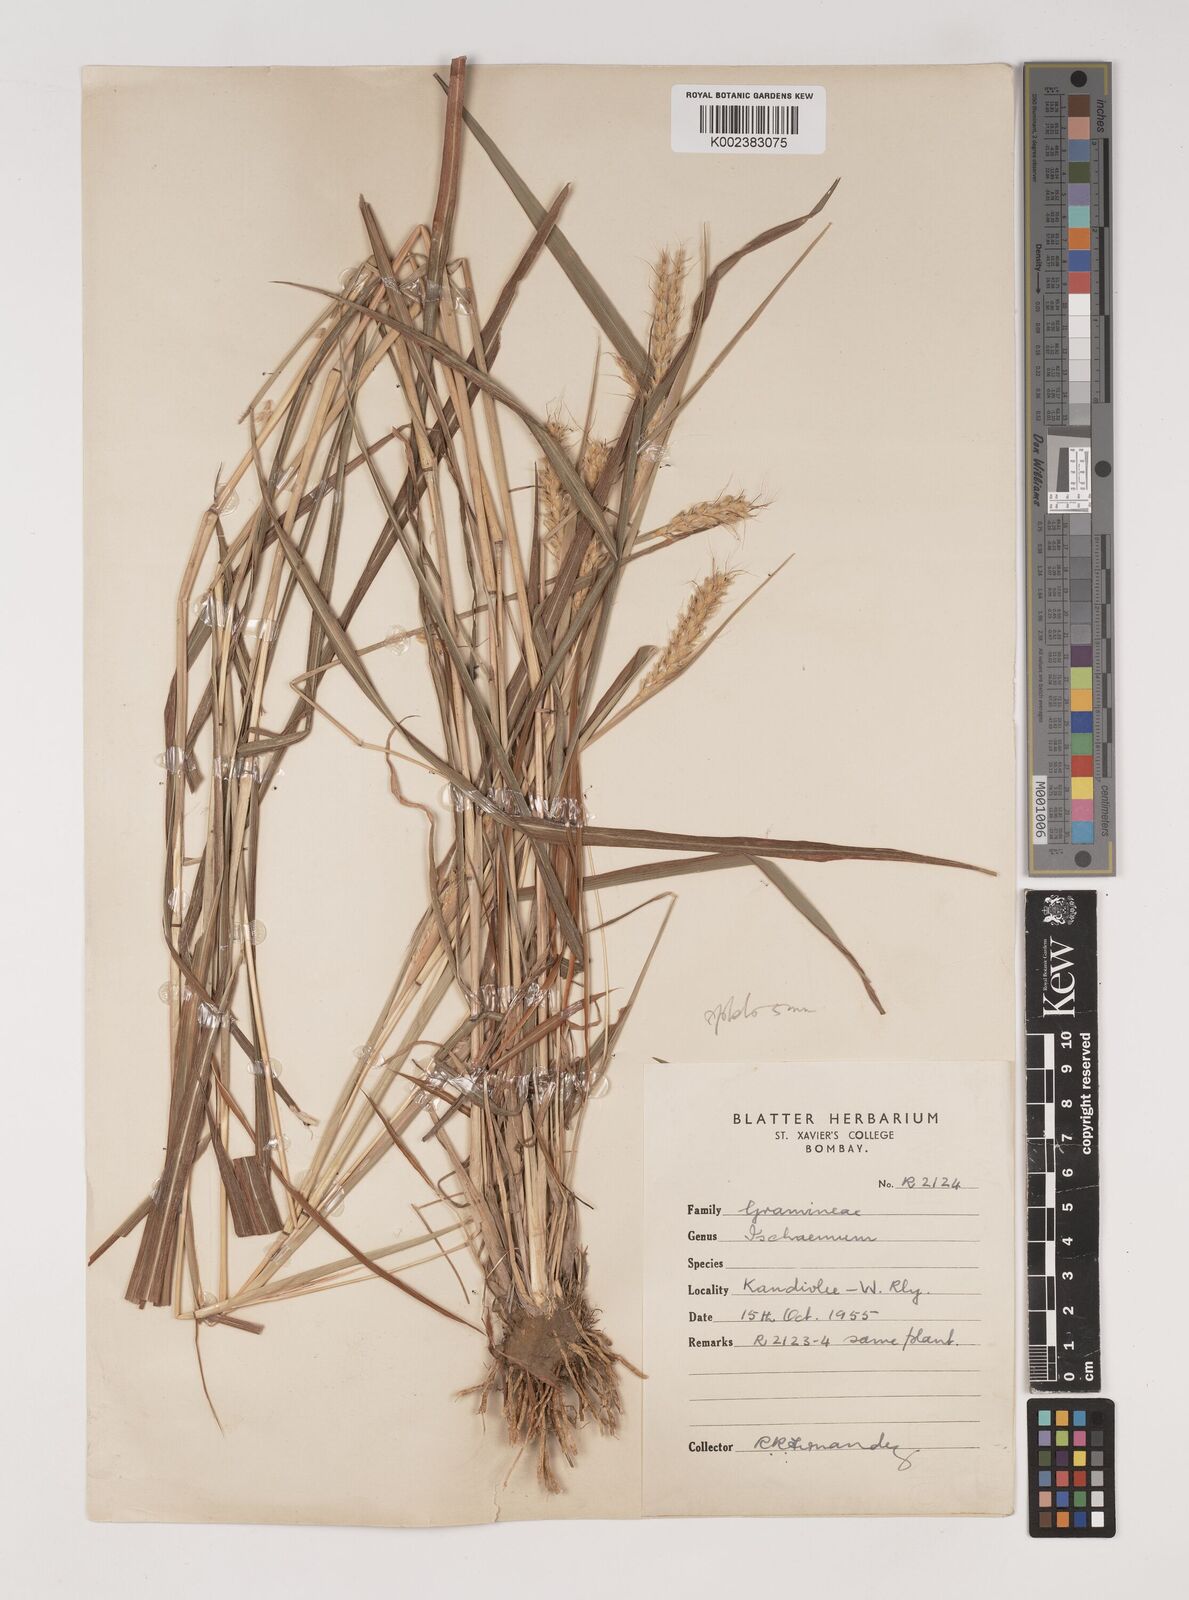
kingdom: Plantae
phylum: Tracheophyta
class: Liliopsida
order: Poales
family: Poaceae
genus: Ischaemum
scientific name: Ischaemum molle
